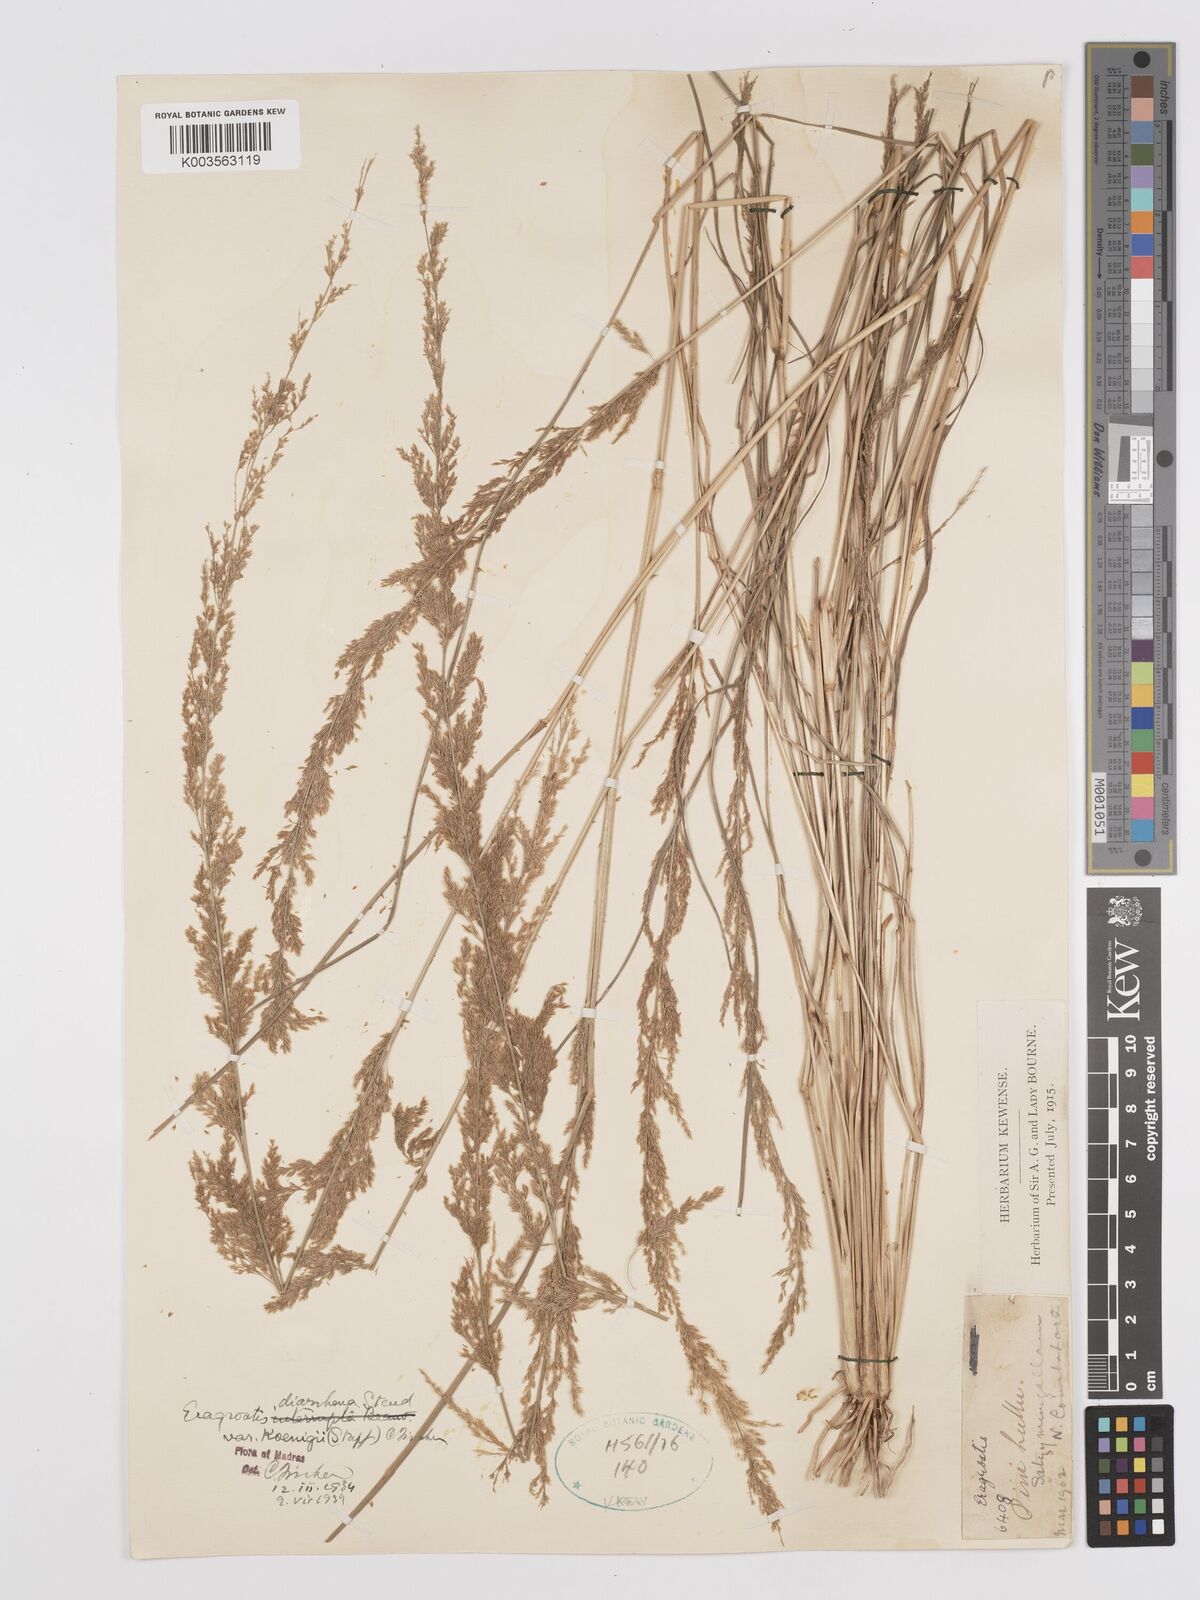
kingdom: Plantae
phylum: Tracheophyta
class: Liliopsida
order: Poales
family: Poaceae
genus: Eragrostis
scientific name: Eragrostis japonica
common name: Pond lovegrass
